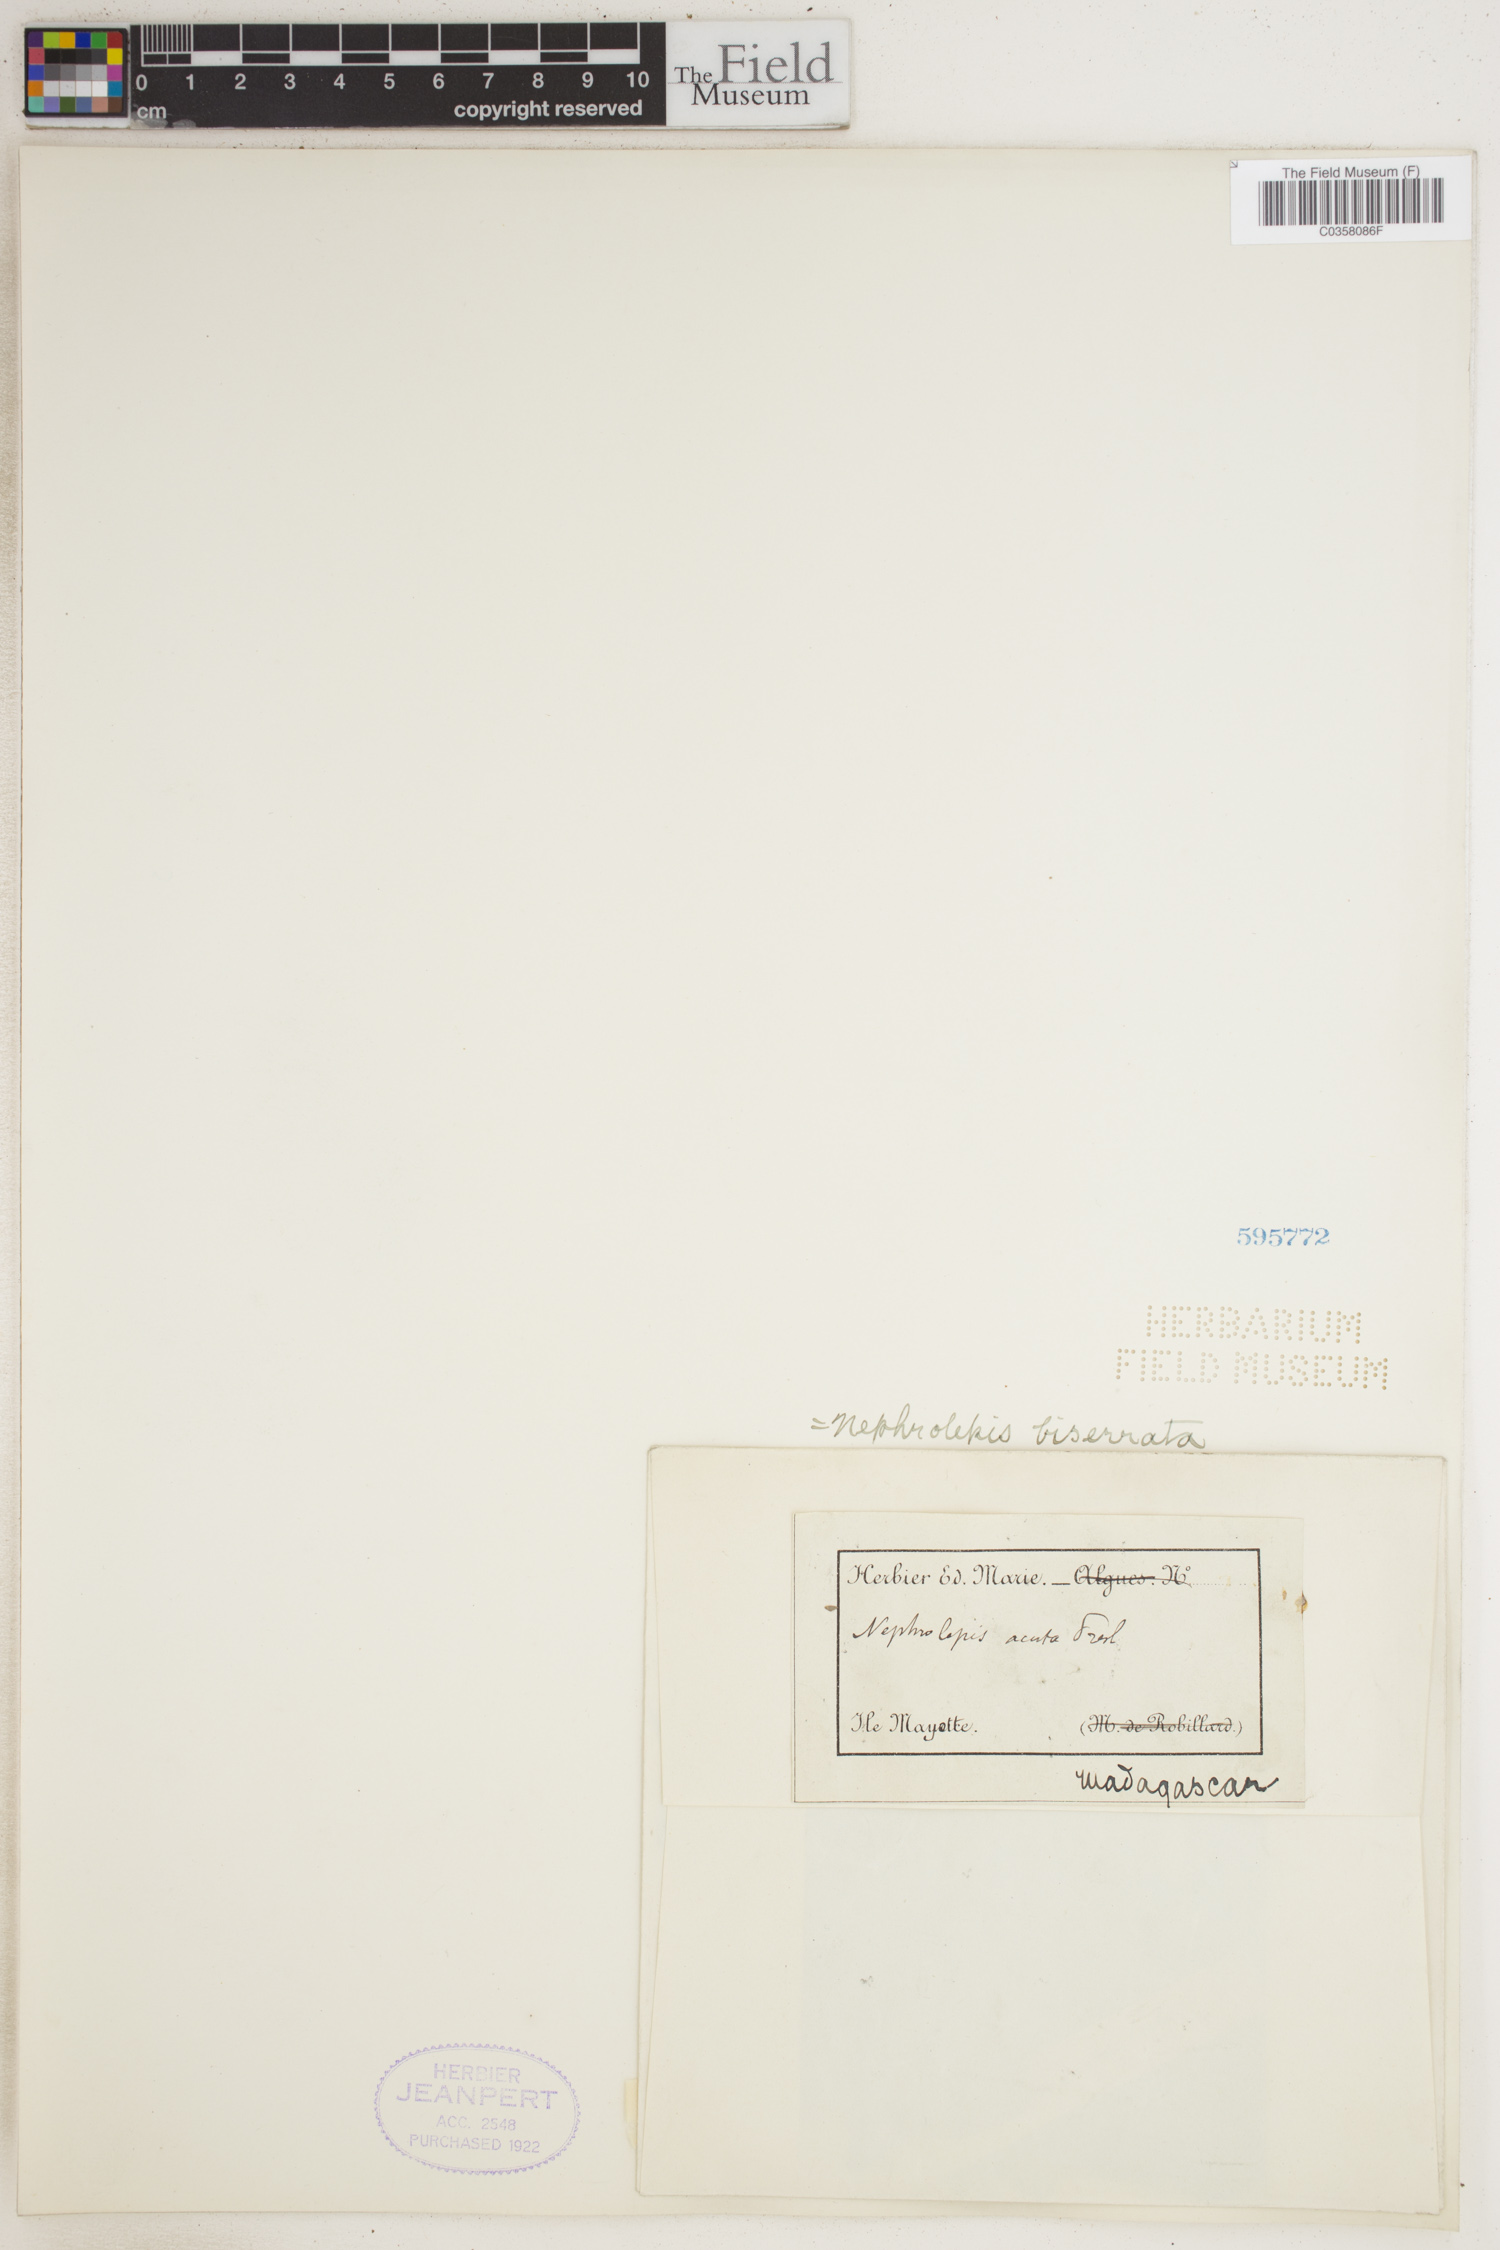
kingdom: Plantae
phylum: Tracheophyta
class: Polypodiopsida
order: Polypodiales
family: Nephrolepidaceae
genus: Nephrolepis
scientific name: Nephrolepis biserrata
